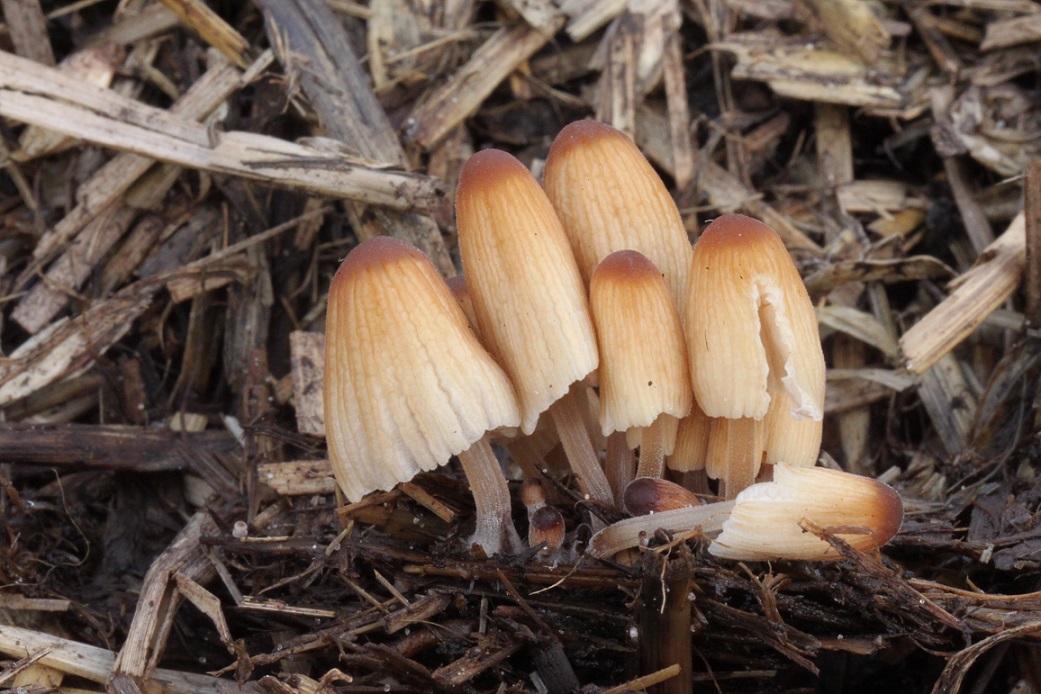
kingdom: Fungi
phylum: Basidiomycota
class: Agaricomycetes
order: Agaricales
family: Psathyrellaceae
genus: Tulosesus
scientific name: Tulosesus congregatus
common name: klynge-blækhat
